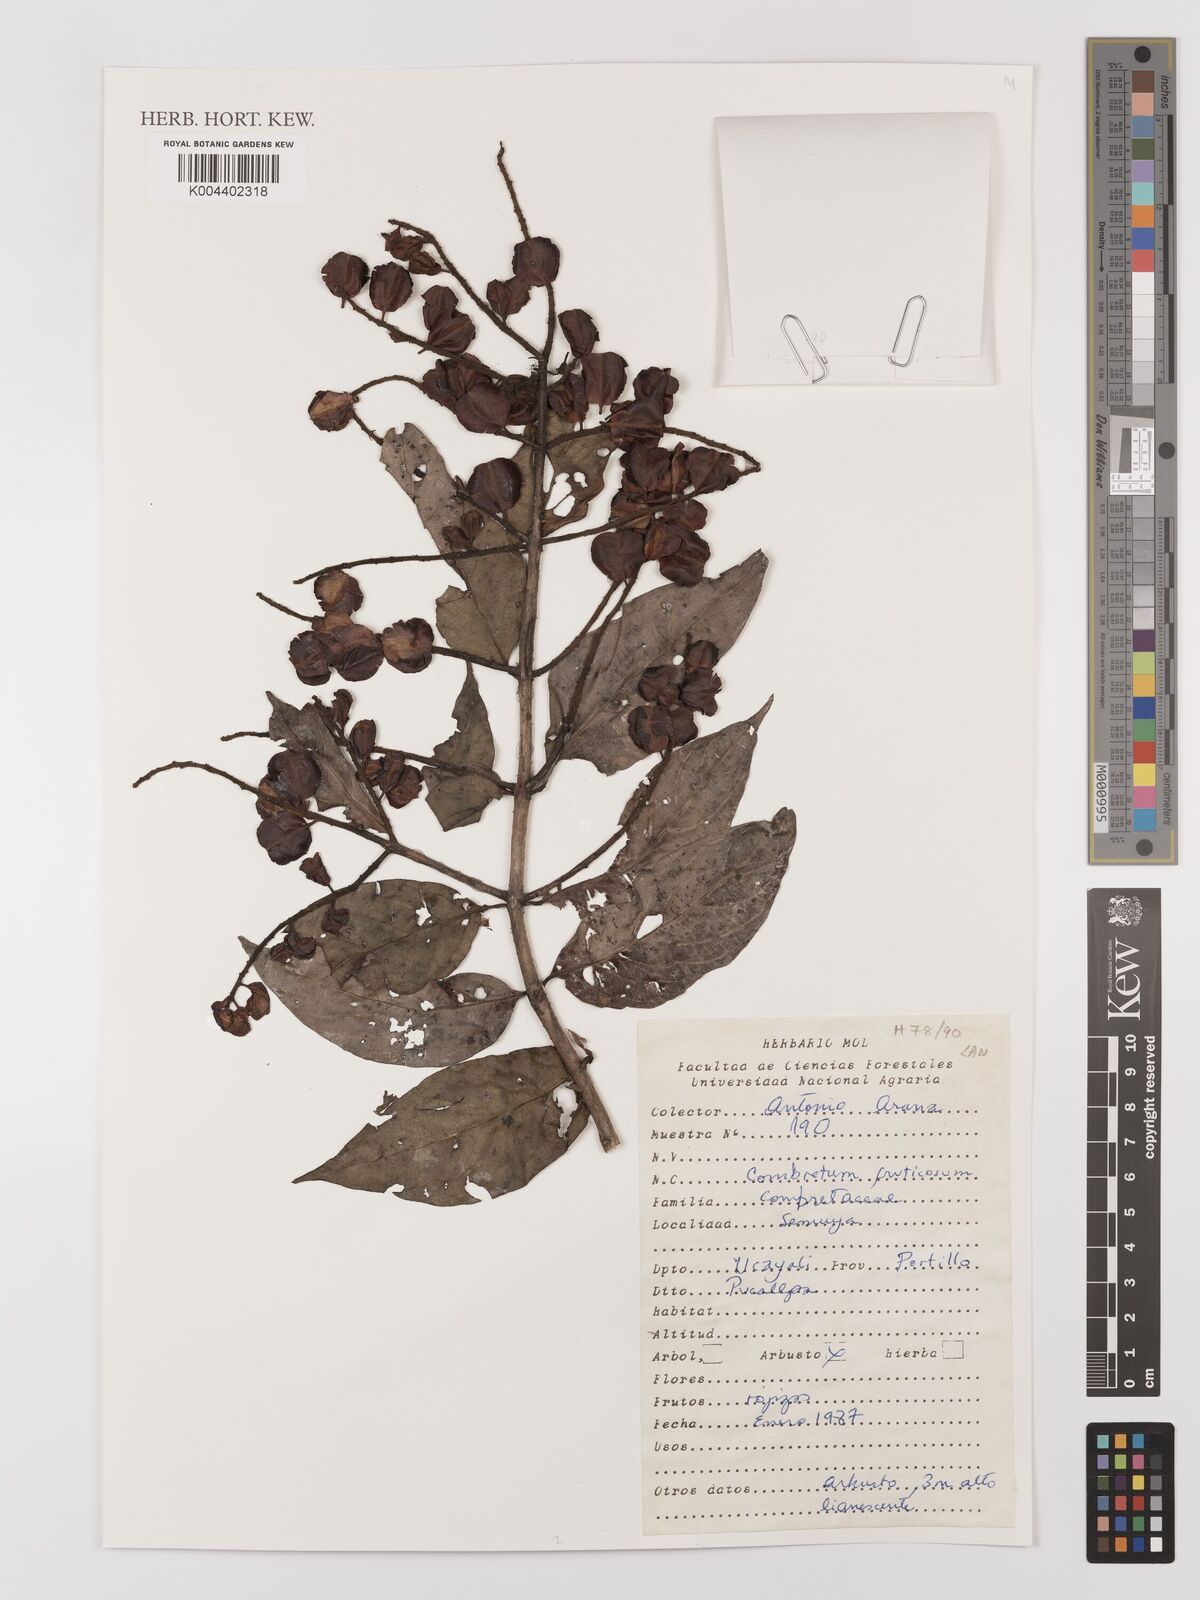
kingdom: Plantae
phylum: Tracheophyta
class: Magnoliopsida
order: Myrtales
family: Combretaceae
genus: Combretum
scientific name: Combretum fruticosum
